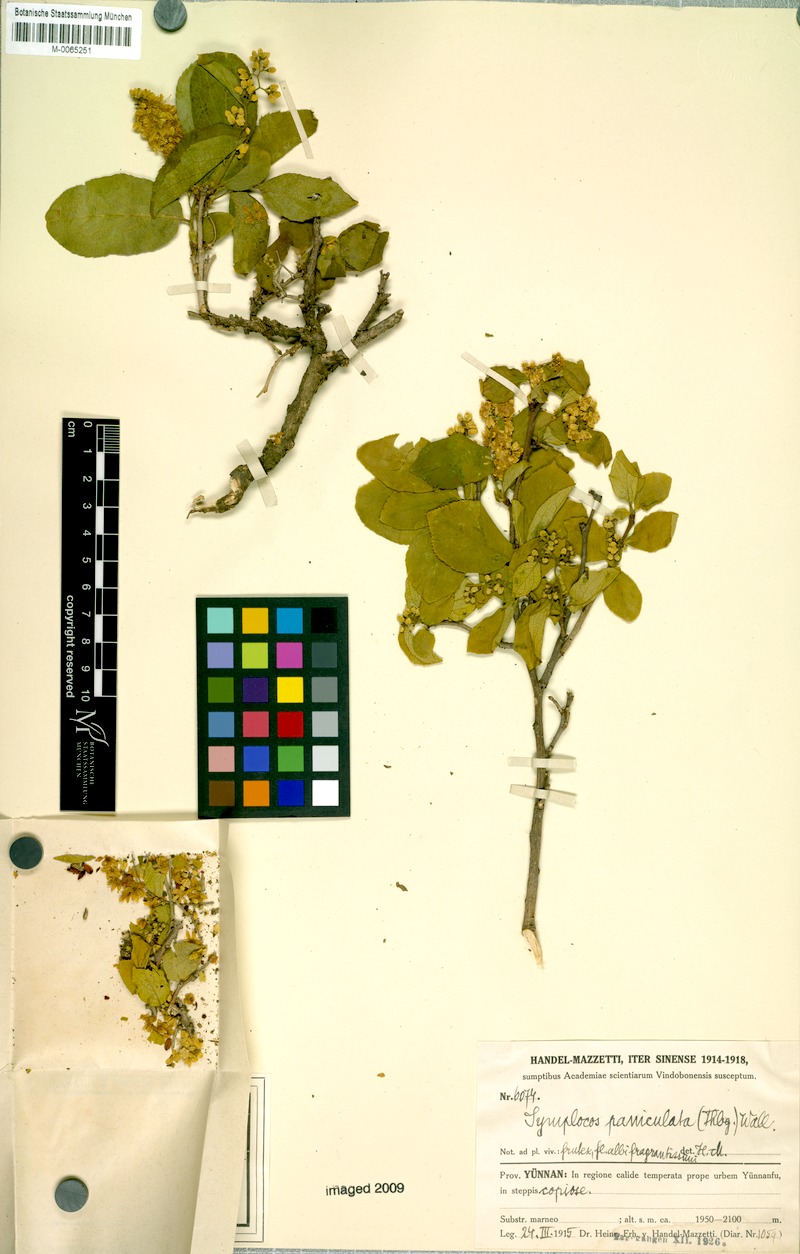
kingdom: Plantae
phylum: Tracheophyta
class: Magnoliopsida
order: Ericales
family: Symplocaceae
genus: Symplocos
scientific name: Symplocos paniculata
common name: Sapphire-berry
